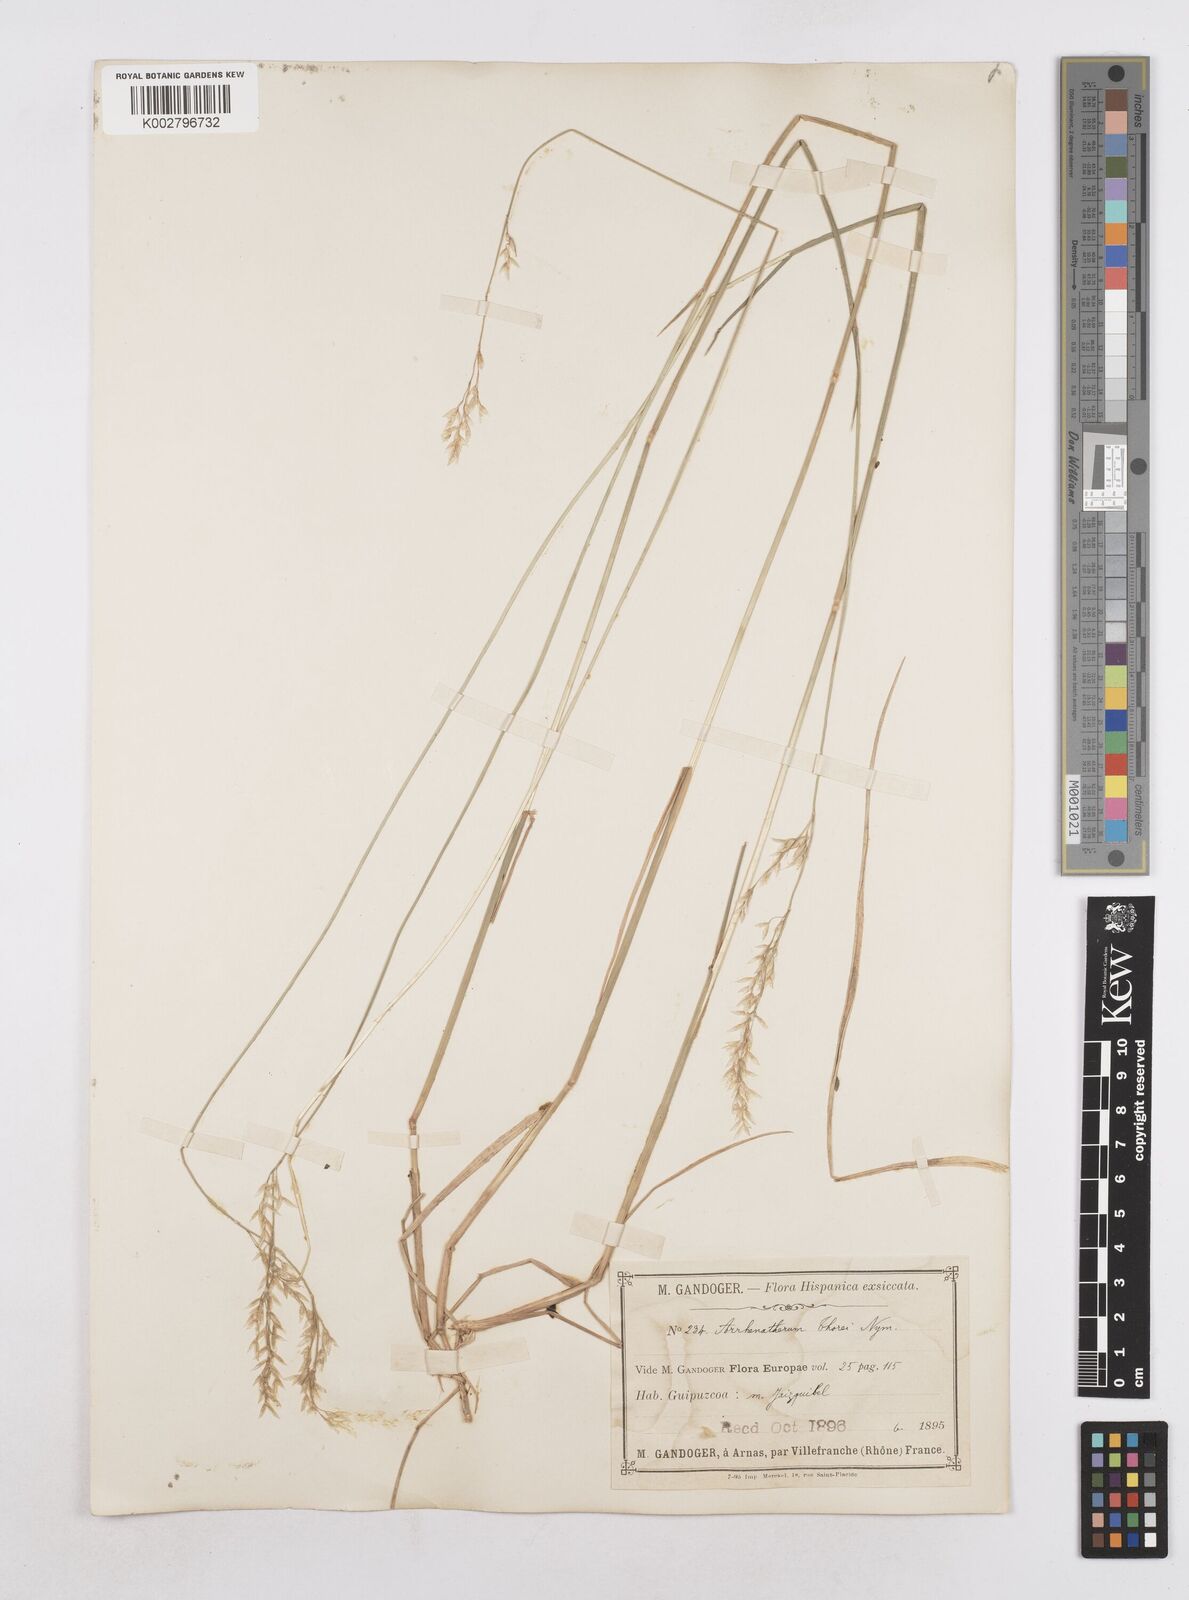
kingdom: Plantae
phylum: Tracheophyta
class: Liliopsida
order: Poales
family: Poaceae
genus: Arrhenatherum
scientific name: Arrhenatherum longifolium
